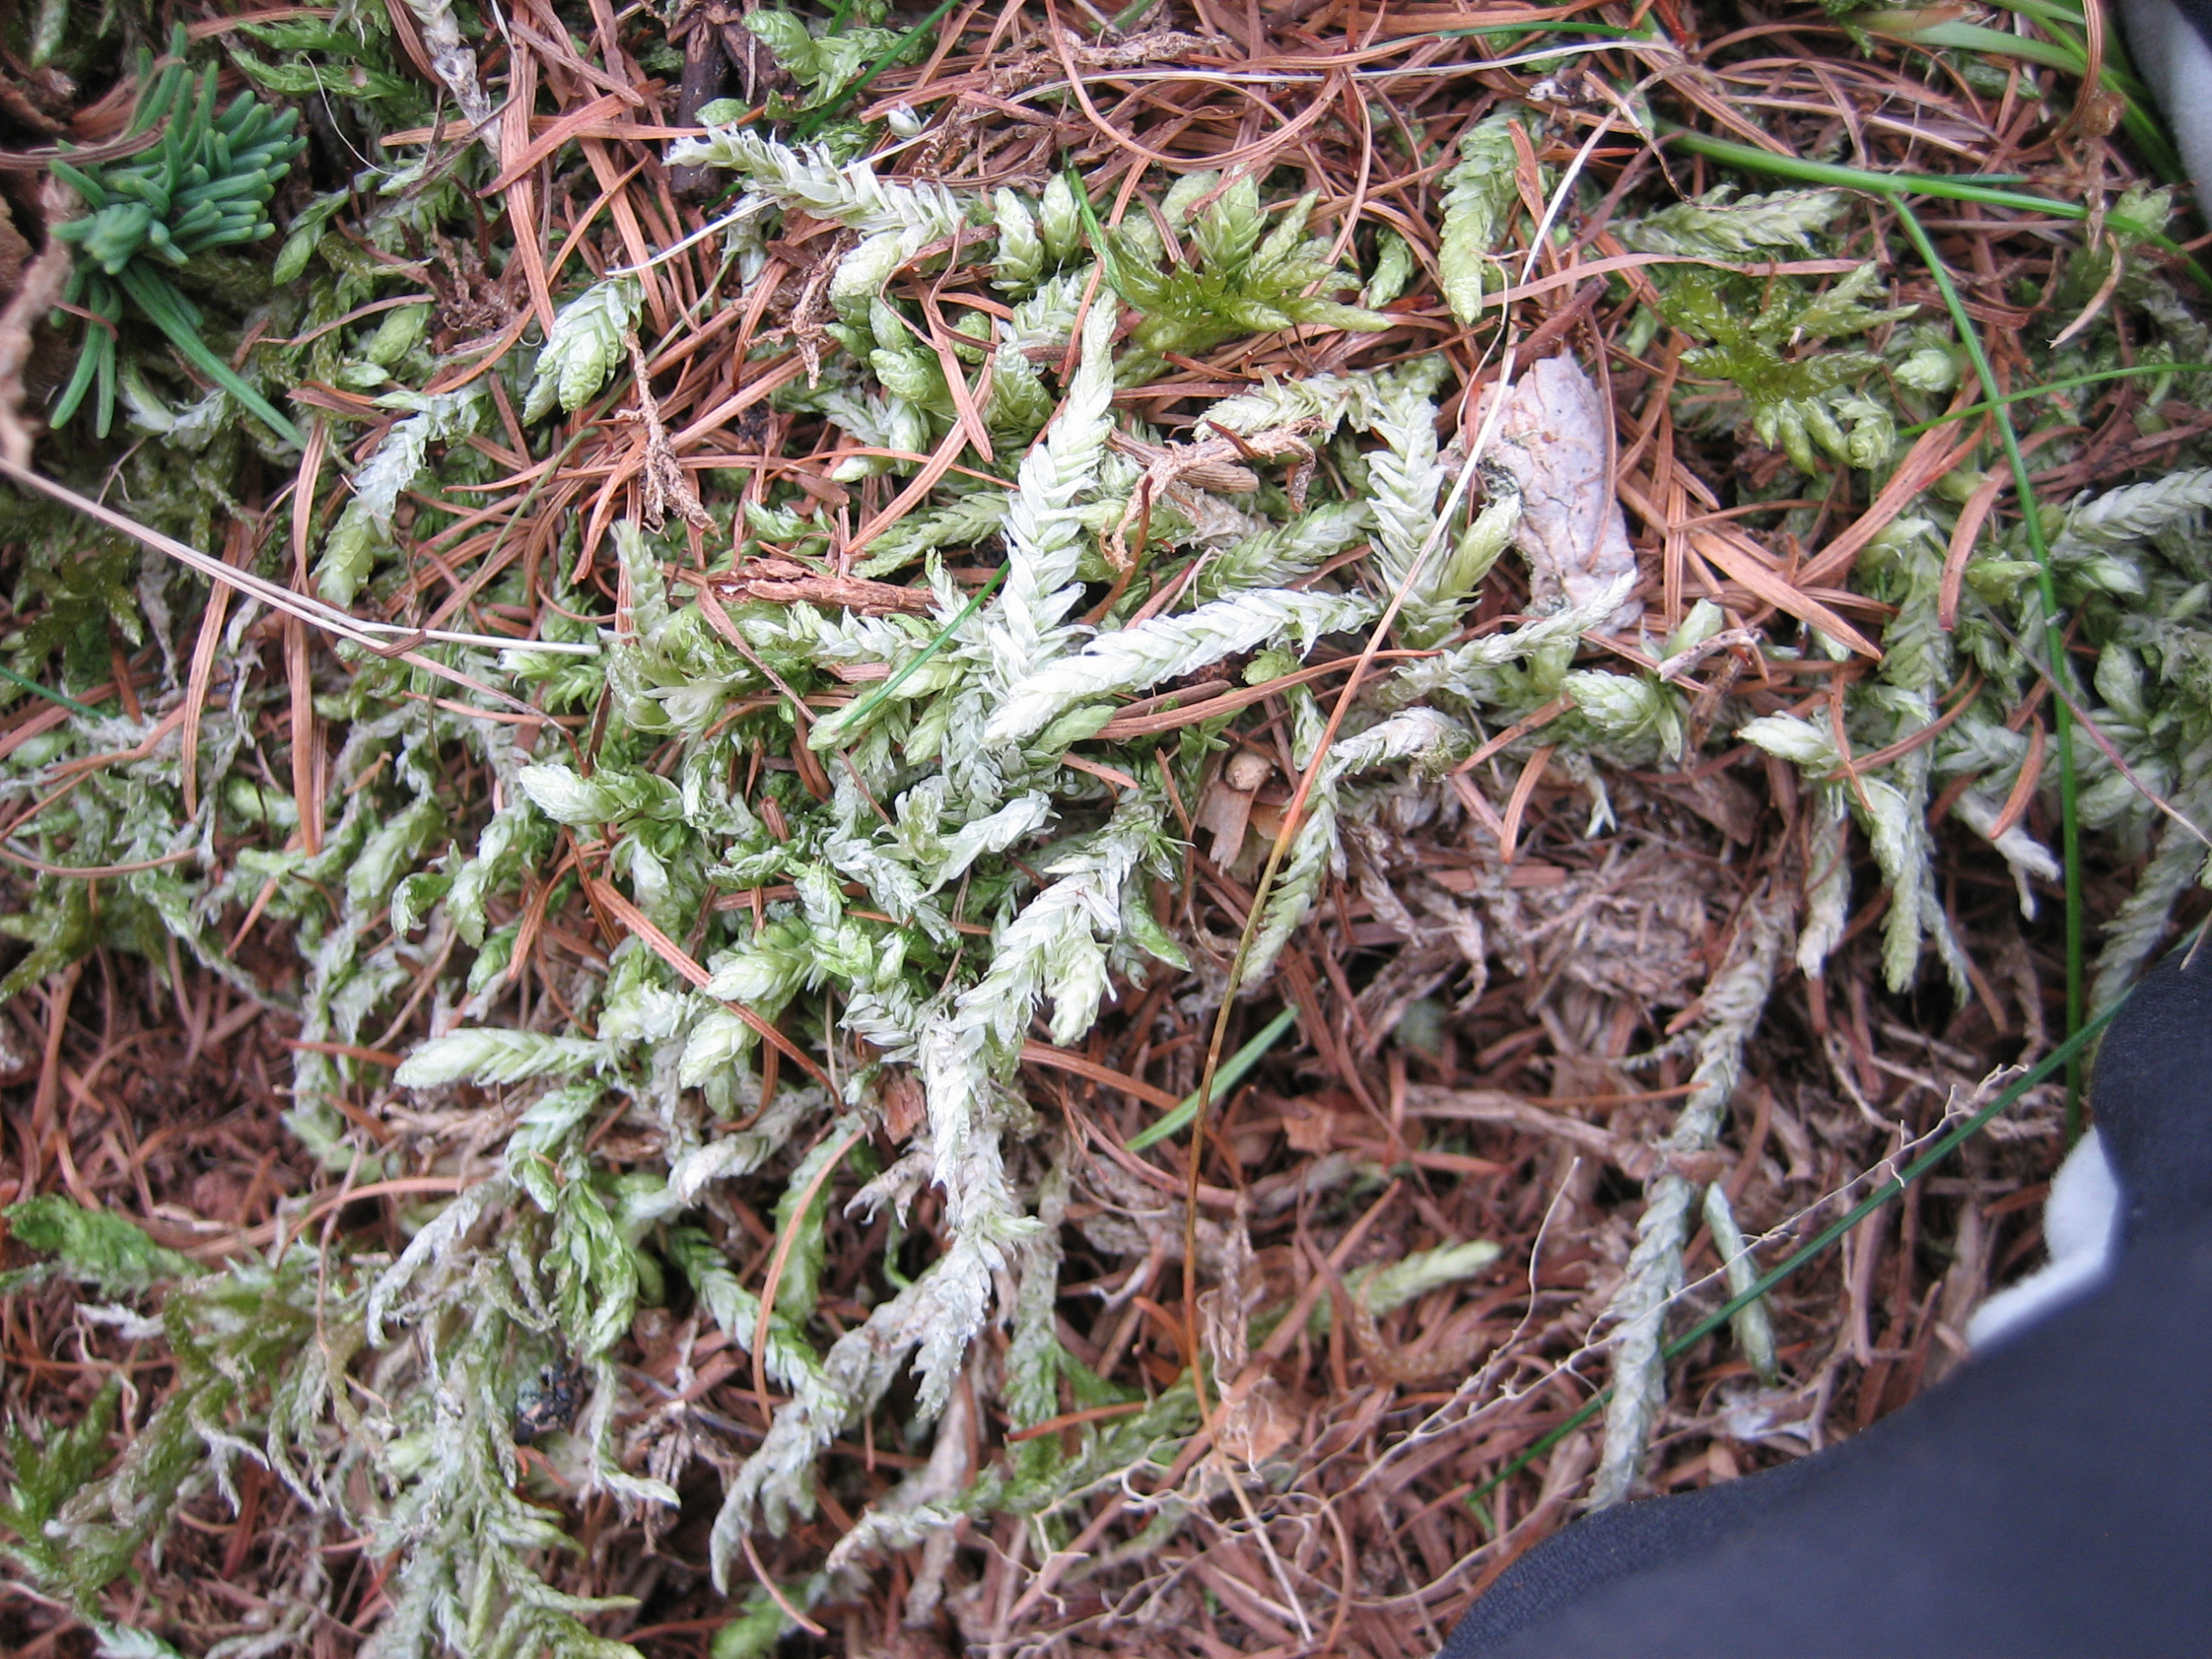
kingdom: Plantae
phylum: Bryophyta
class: Bryopsida
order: Hypnales
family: Plagiotheciaceae
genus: Plagiothecium
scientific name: Plagiothecium undulatum
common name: Bølget tæppemos
